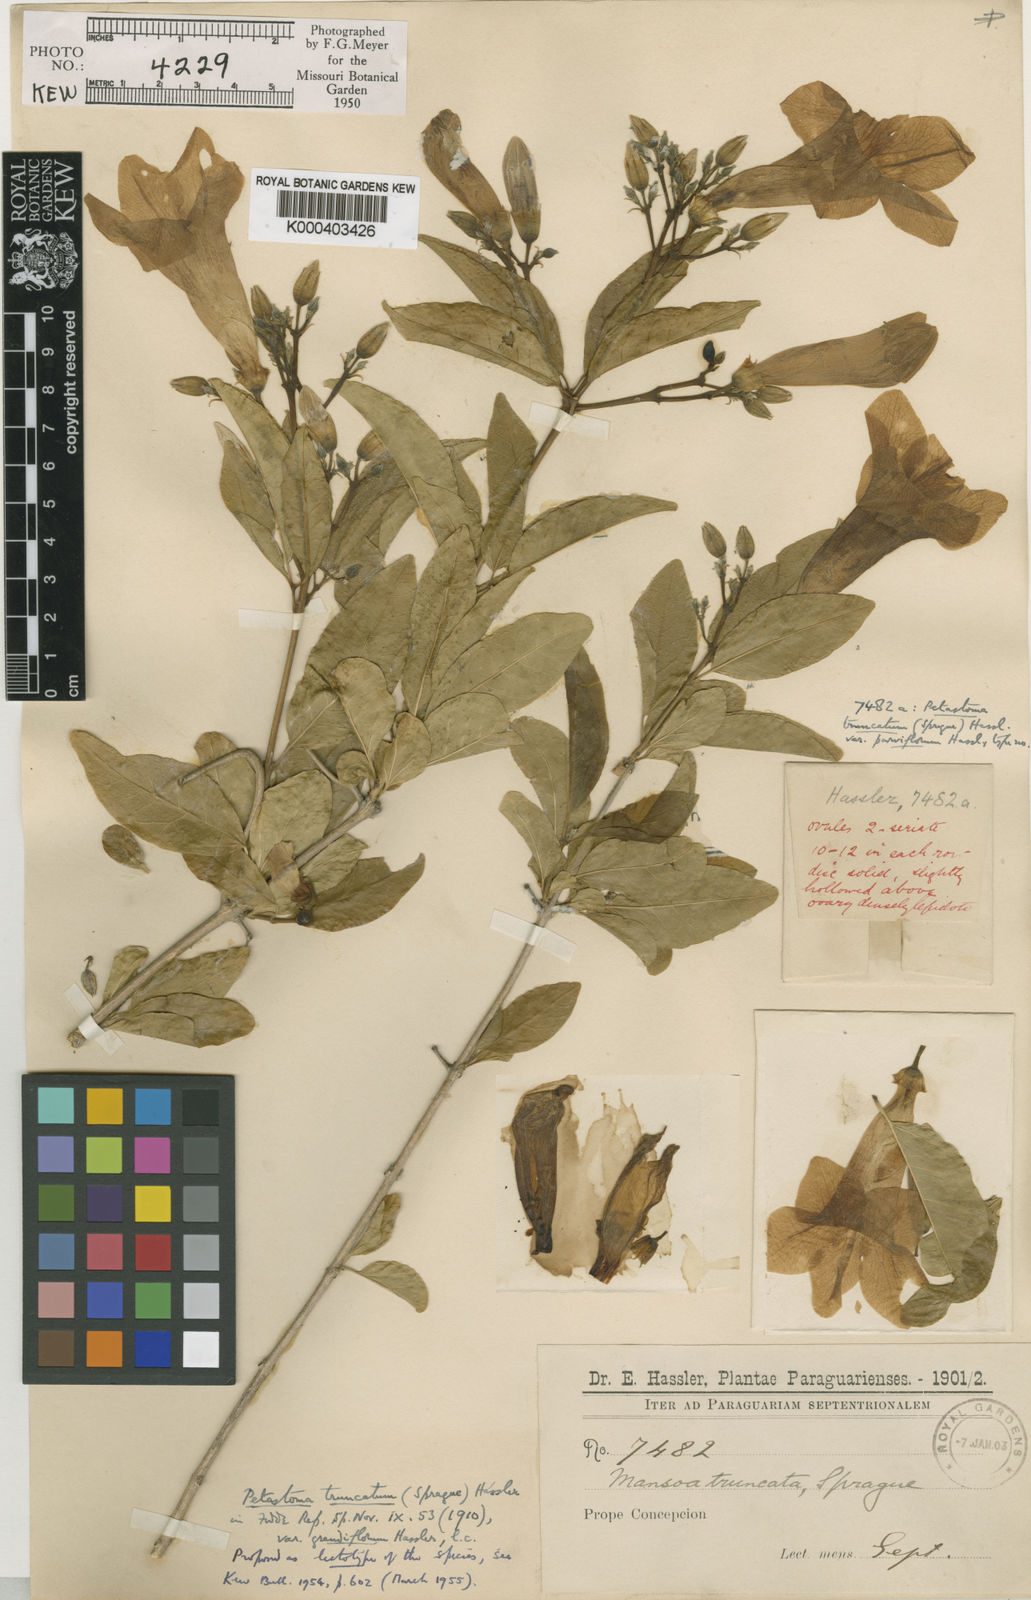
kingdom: Plantae
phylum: Tracheophyta
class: Magnoliopsida
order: Lamiales
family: Bignoniaceae
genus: Fridericia
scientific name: Fridericia truncata
